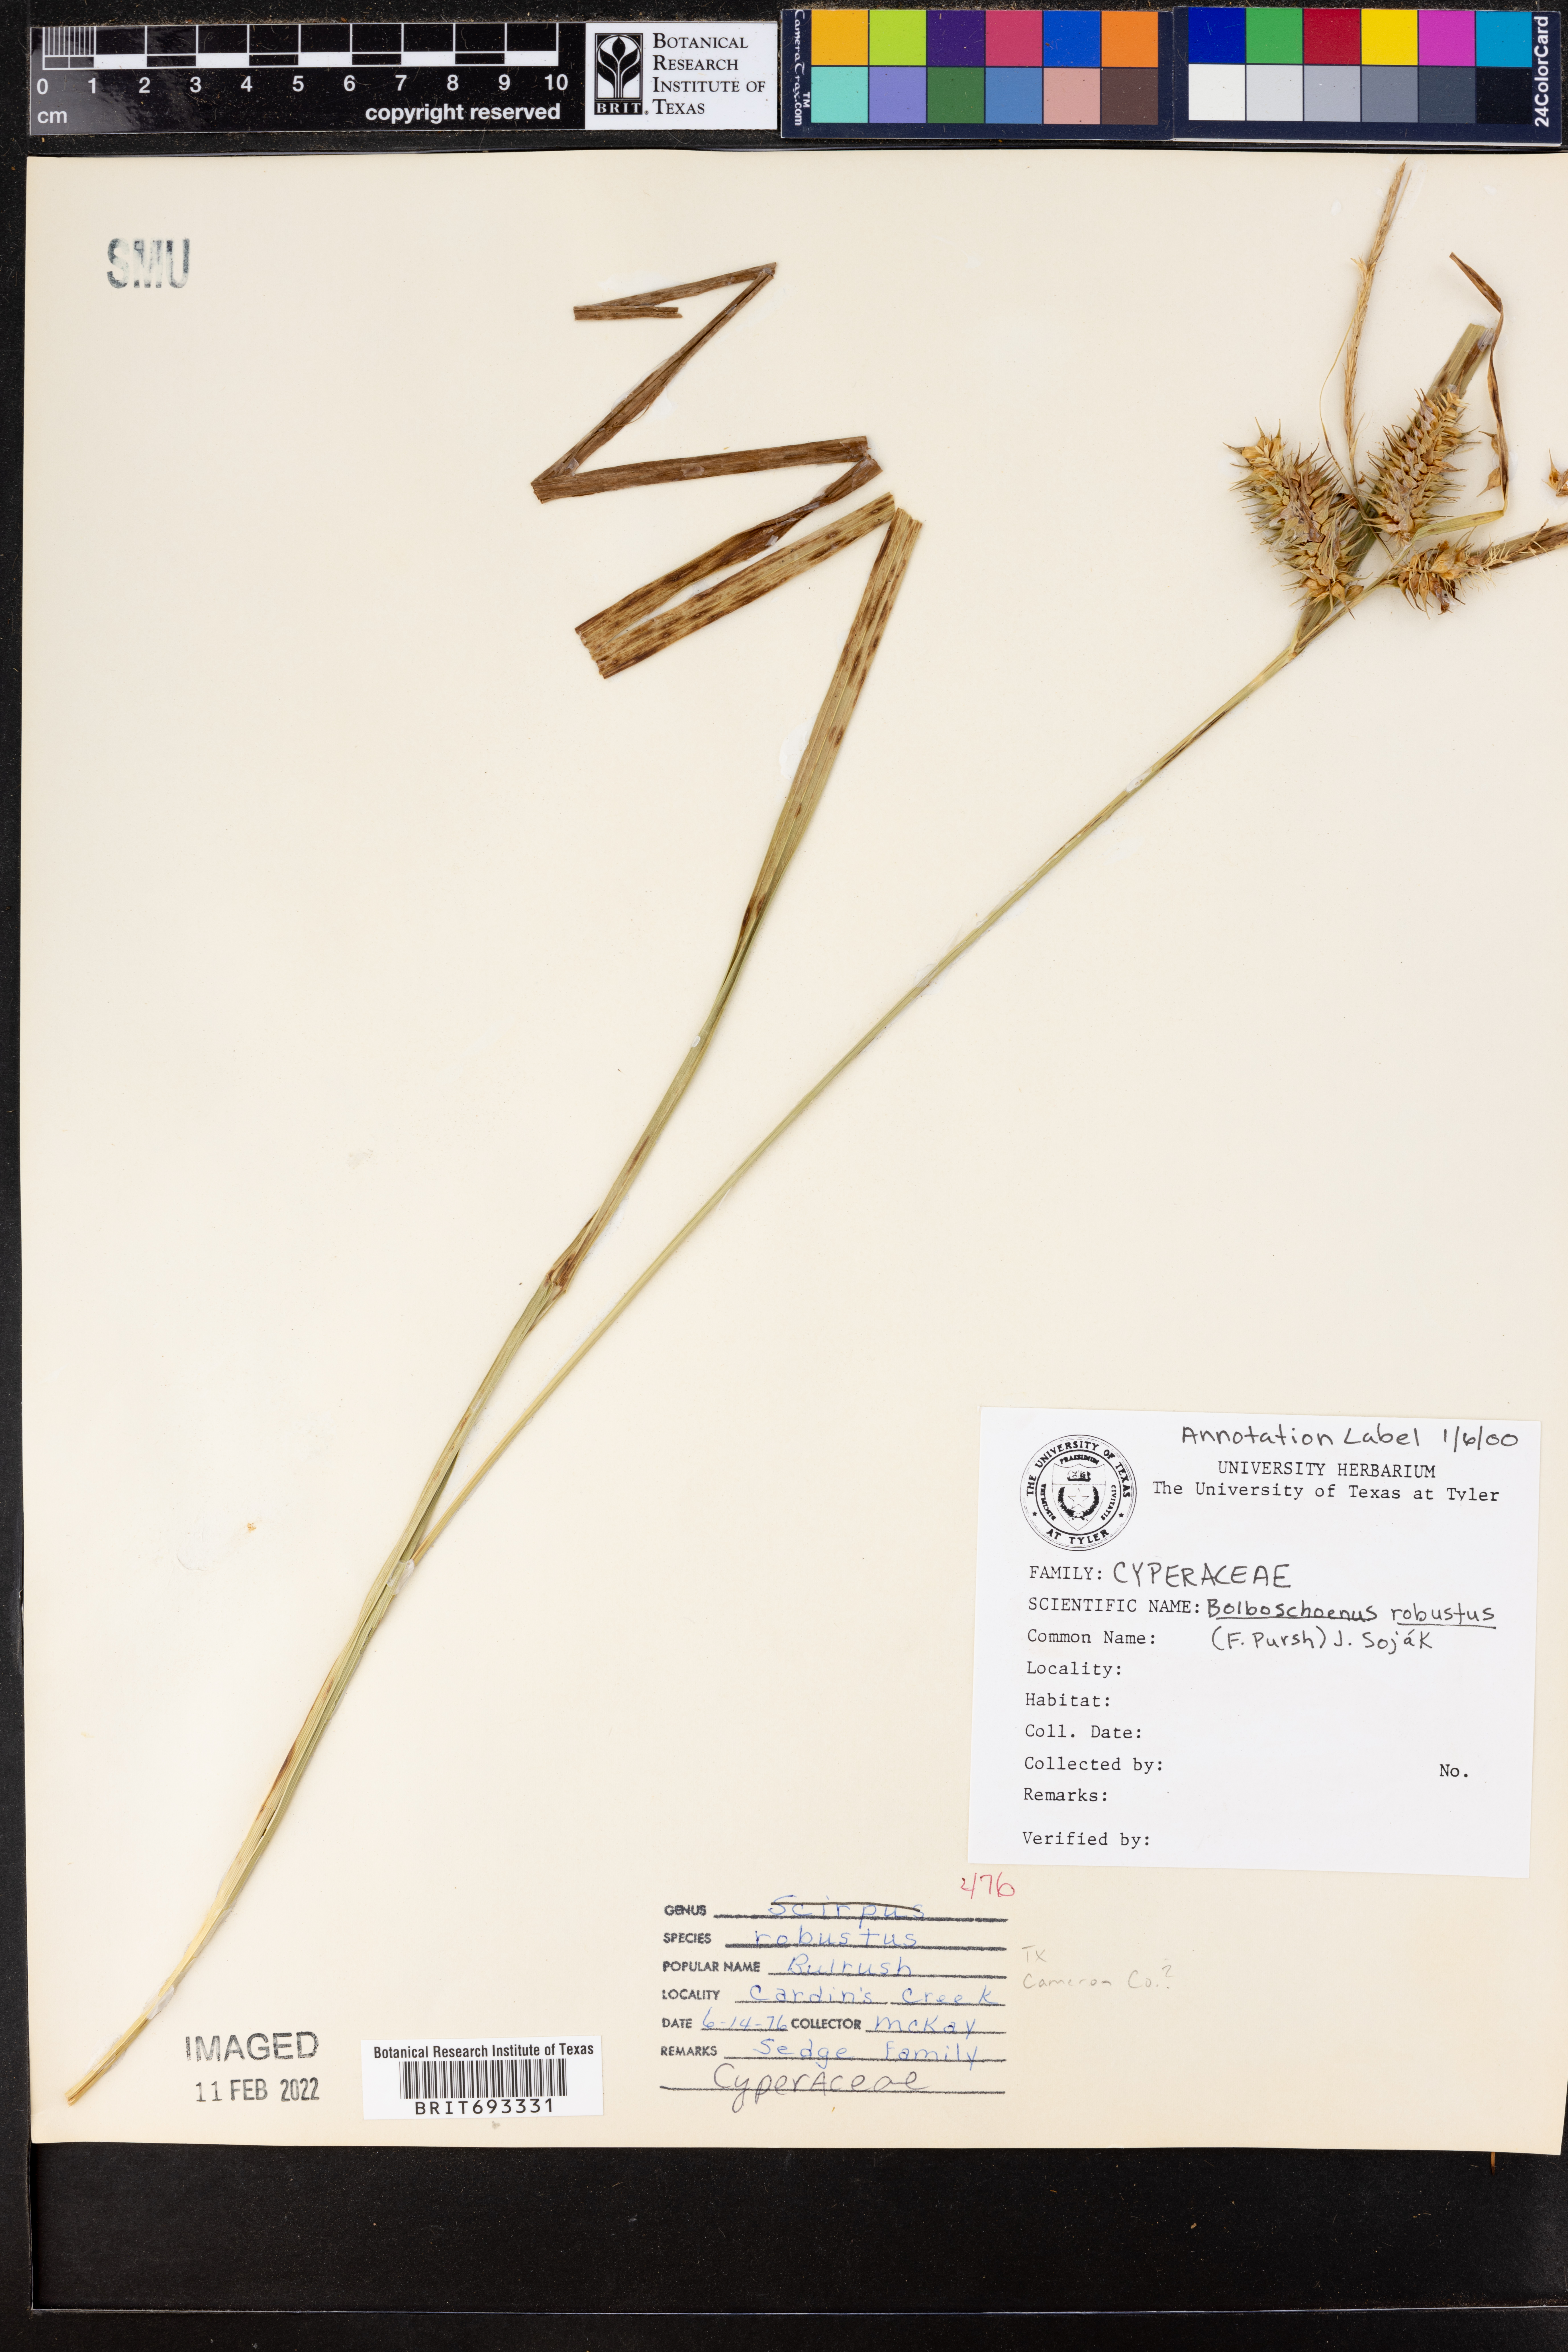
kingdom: Plantae
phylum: Tracheophyta
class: Liliopsida
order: Poales
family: Cyperaceae
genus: Bolboschoenus
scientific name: Bolboschoenus robustus
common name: Seacoast bulrush
